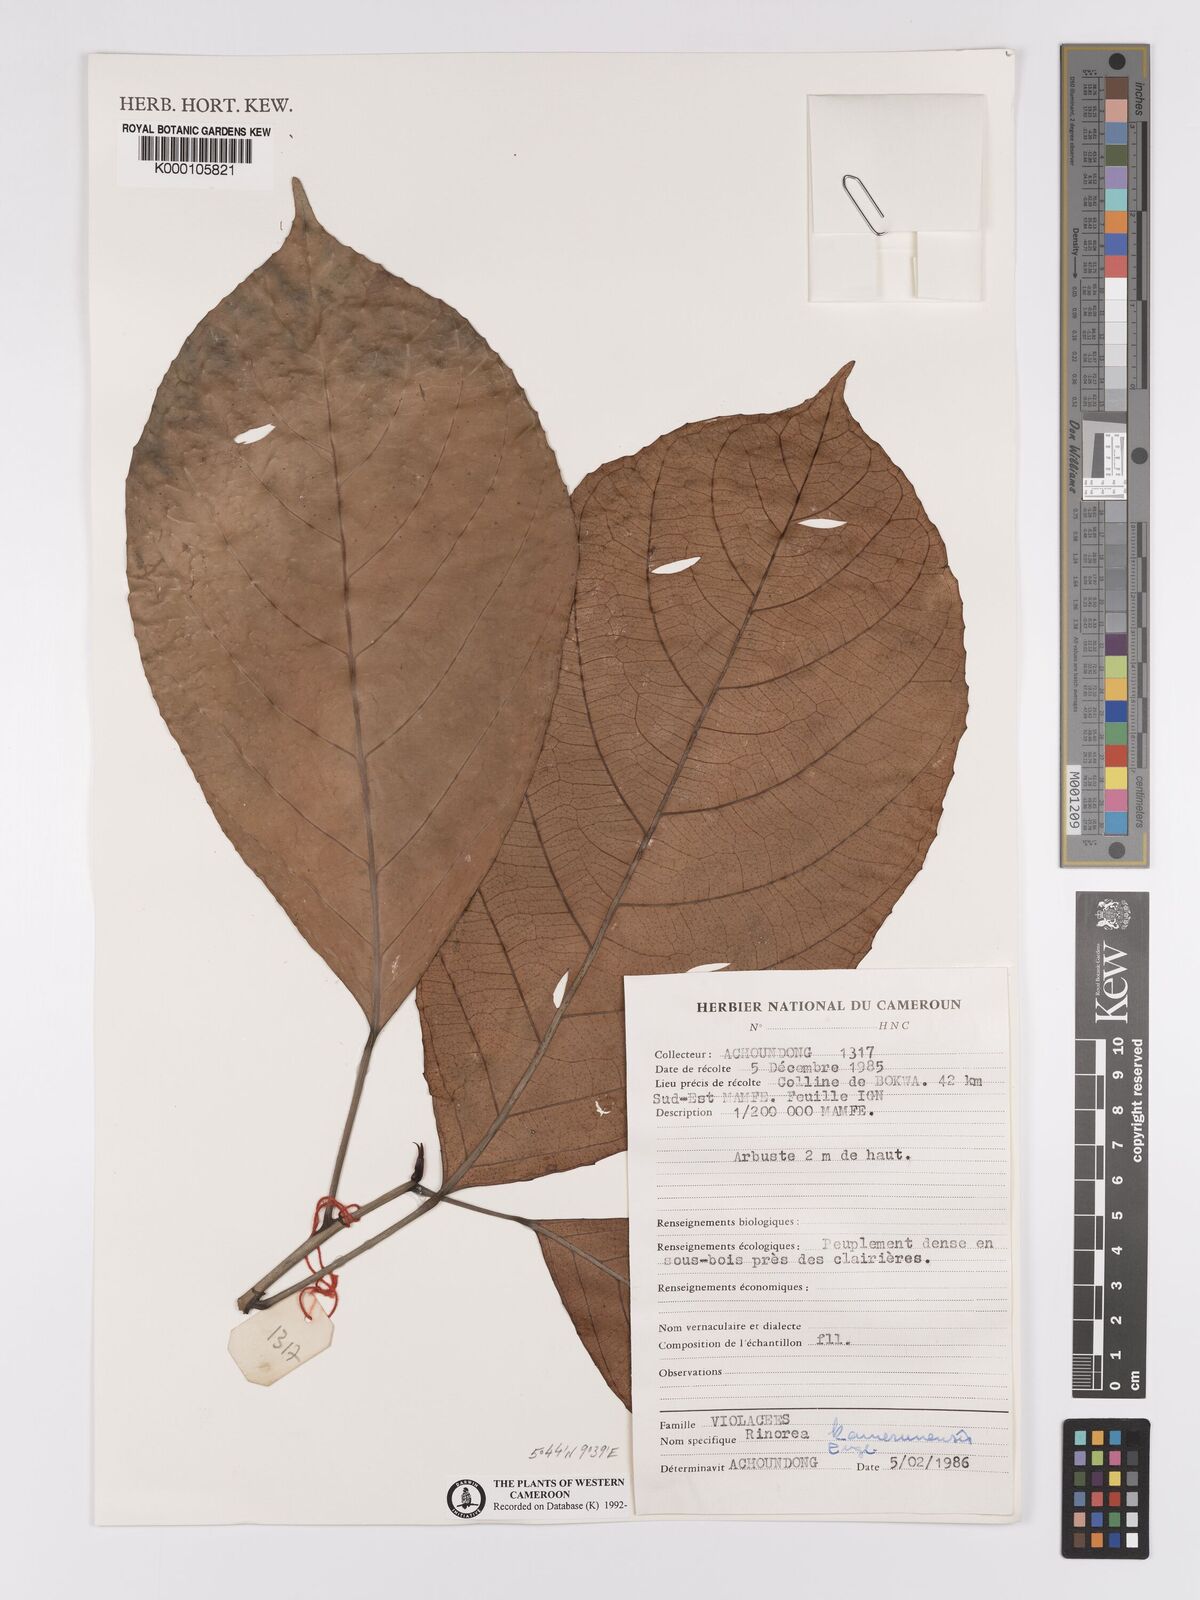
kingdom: Plantae
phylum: Tracheophyta
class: Magnoliopsida
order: Malpighiales
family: Violaceae
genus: Rinorea
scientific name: Rinorea kamerunensis
